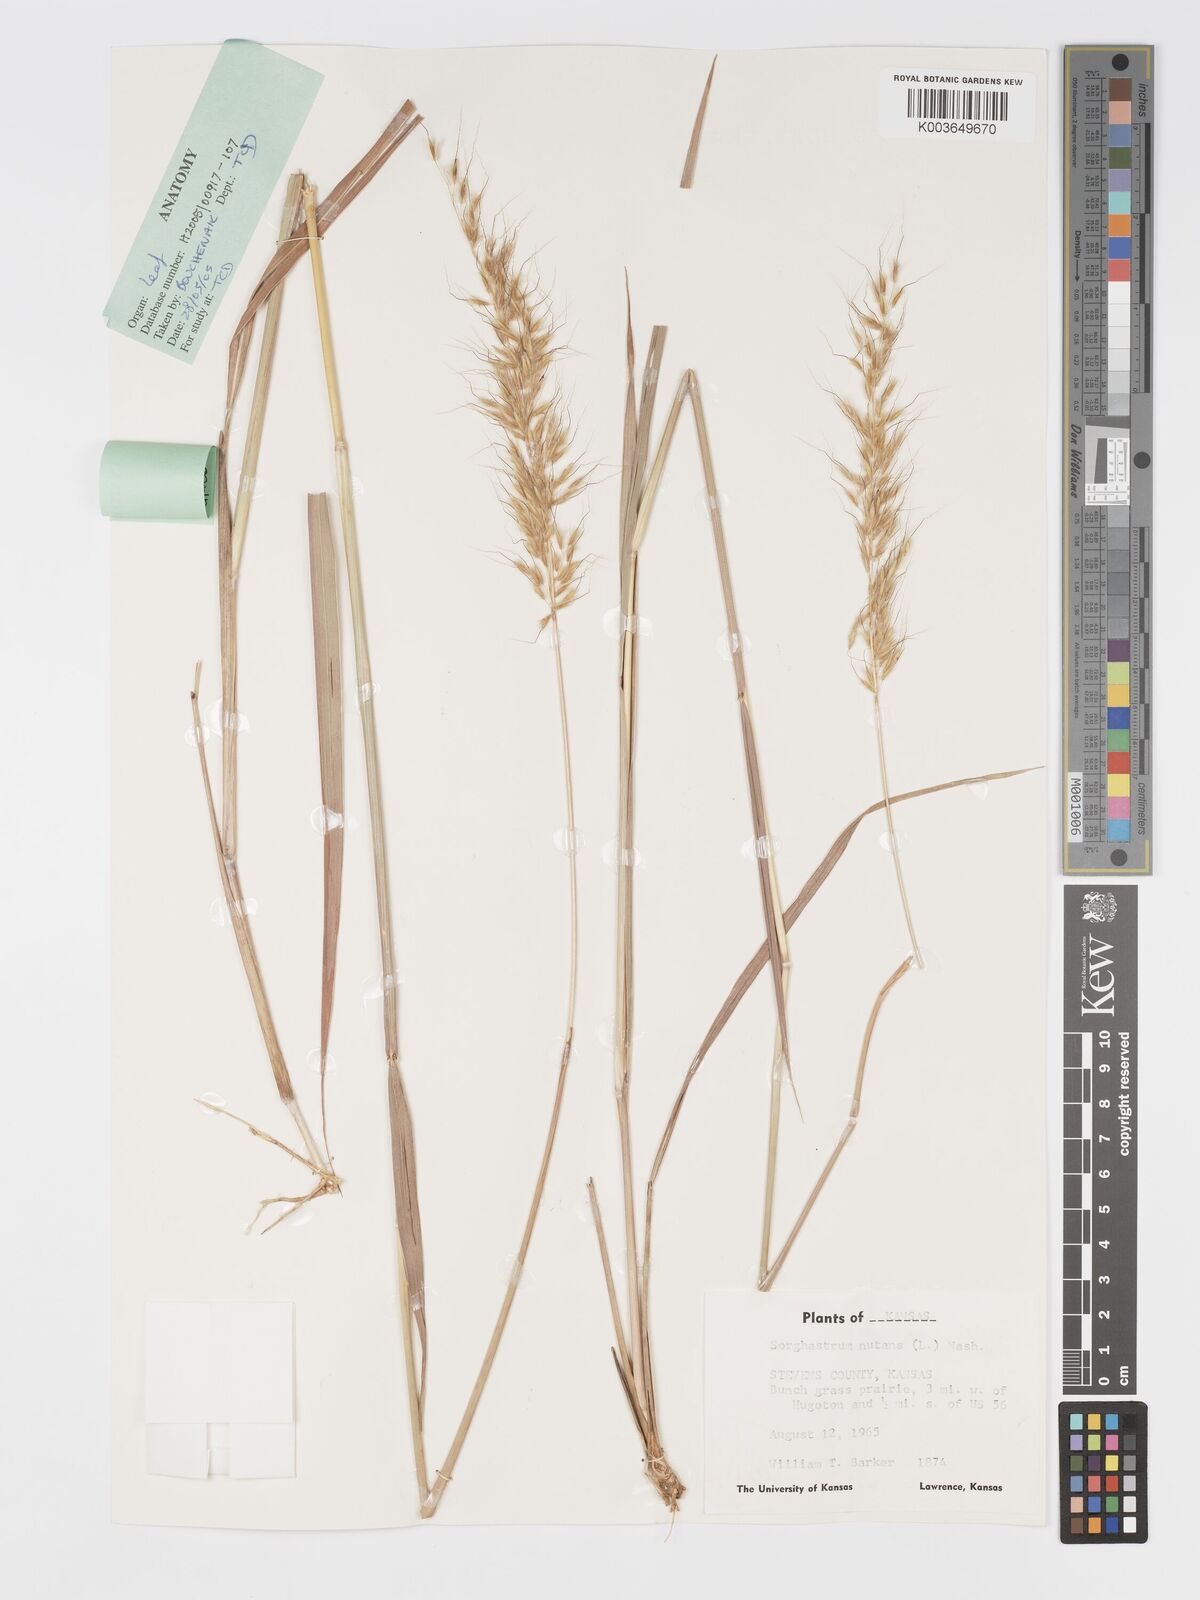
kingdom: Plantae
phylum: Tracheophyta
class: Liliopsida
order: Poales
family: Poaceae
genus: Sorghastrum
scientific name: Sorghastrum nutans
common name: Indian grass
